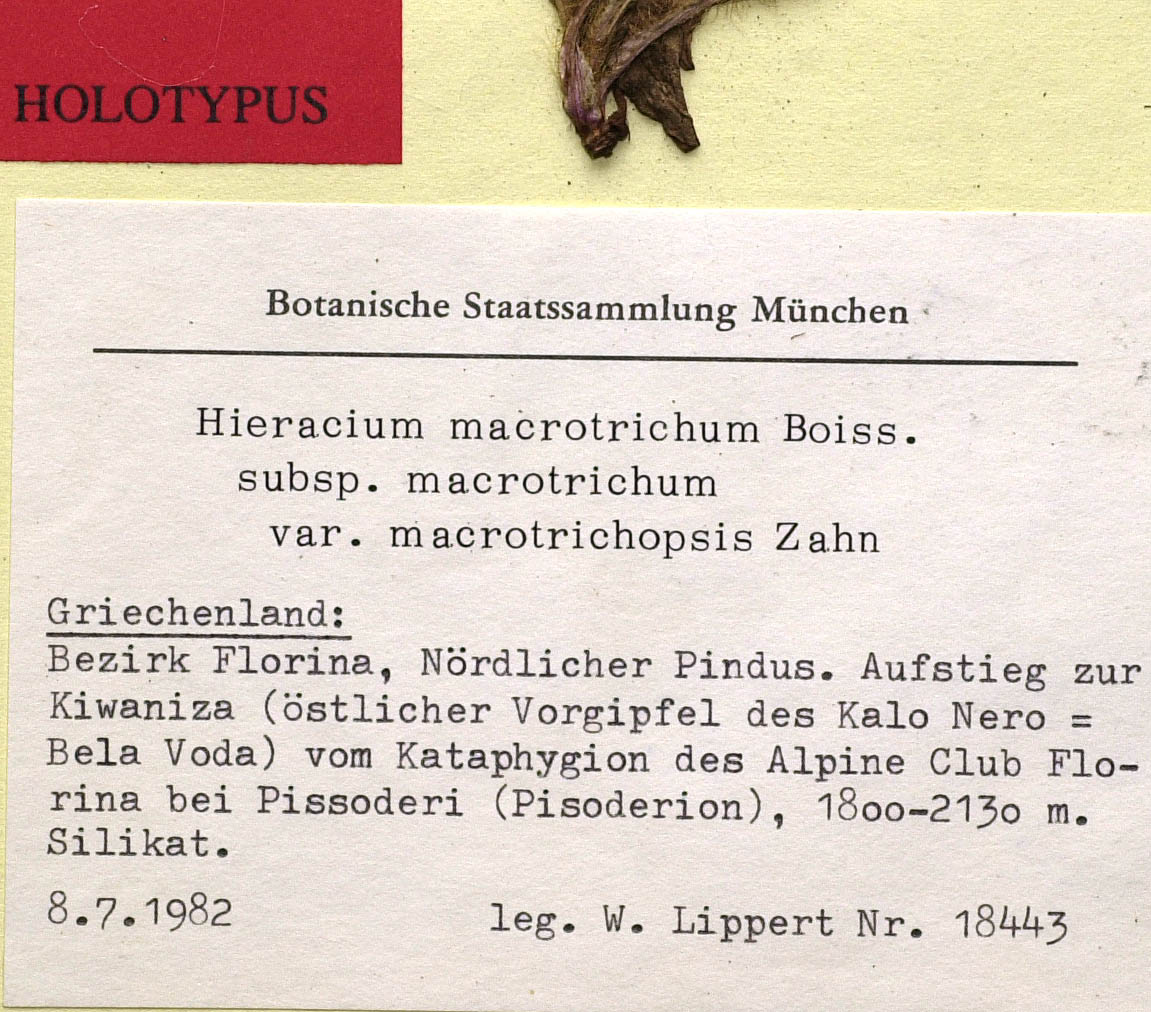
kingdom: Plantae
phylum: Tracheophyta
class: Magnoliopsida
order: Asterales
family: Asteraceae
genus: Pilosella
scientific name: Pilosella bonaquae
